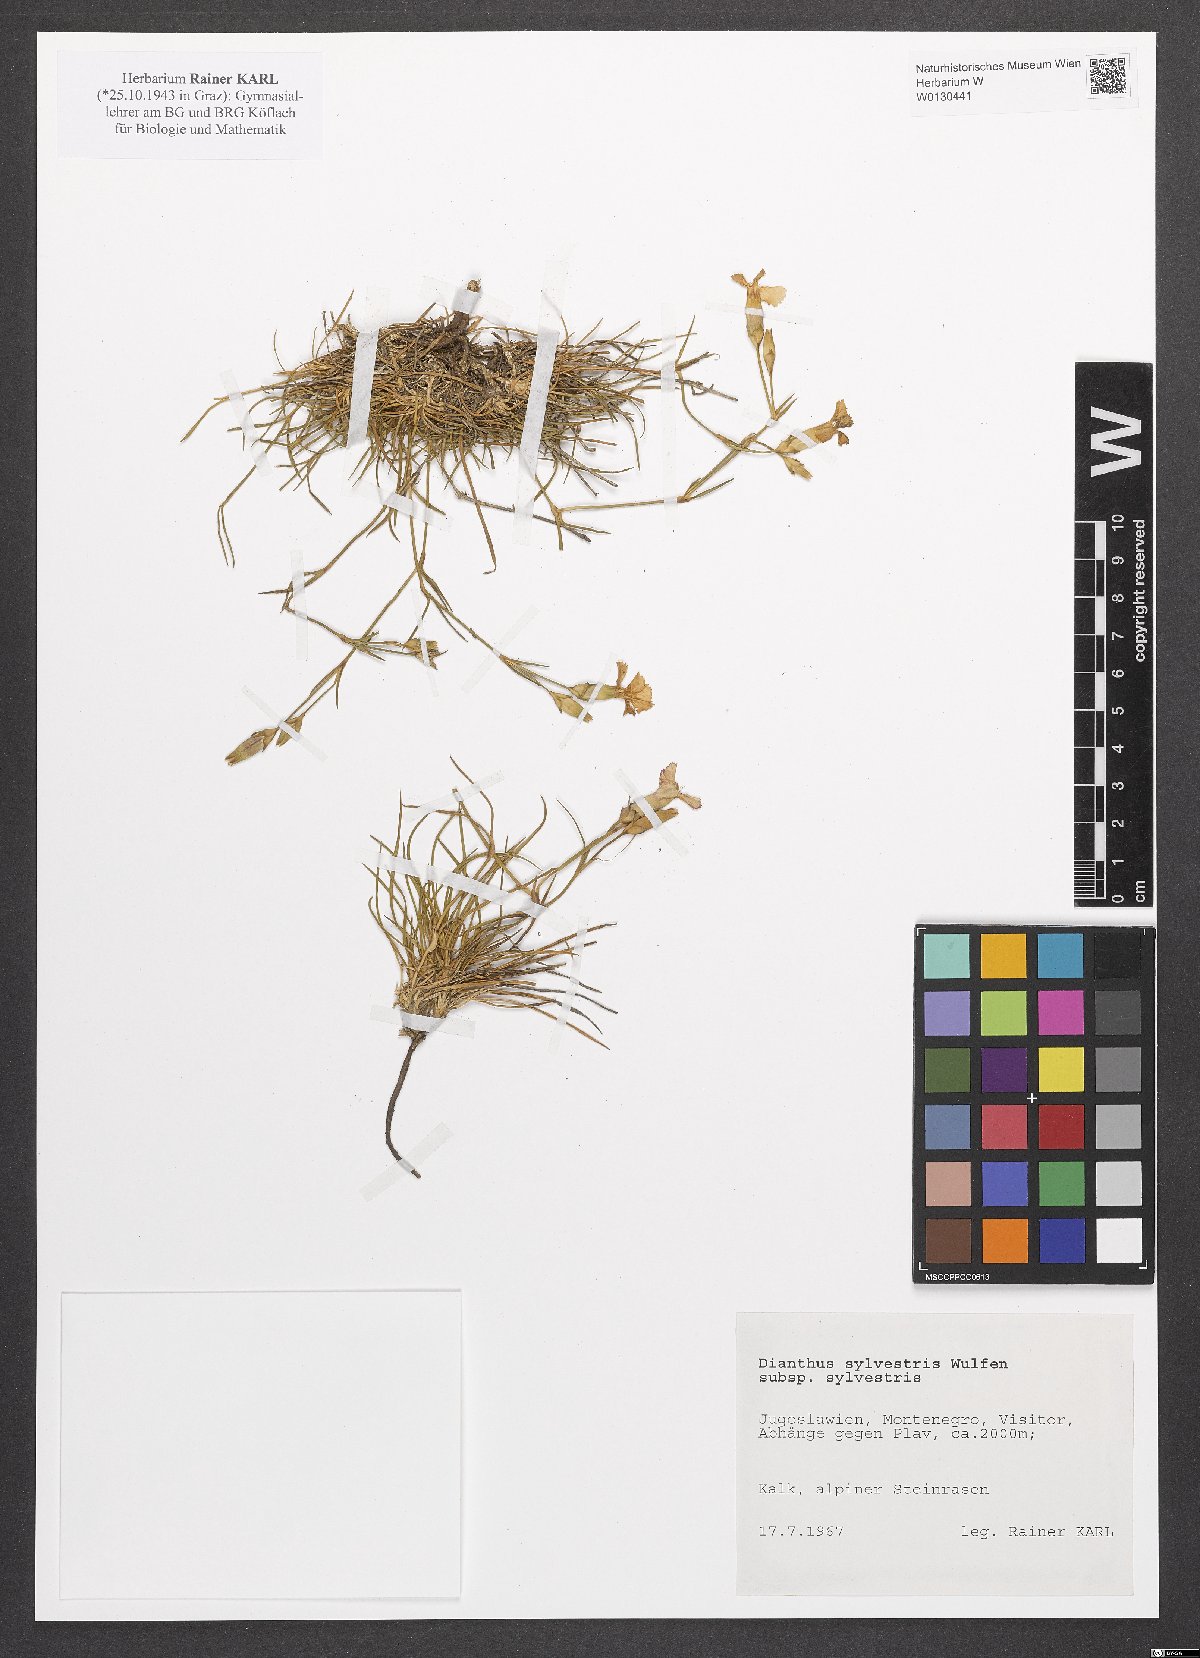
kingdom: Plantae
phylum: Tracheophyta
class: Magnoliopsida
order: Caryophyllales
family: Caryophyllaceae
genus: Dianthus
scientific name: Dianthus sylvestris
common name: Wood pink
